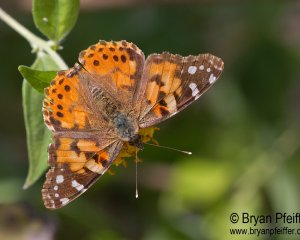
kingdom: Animalia
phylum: Arthropoda
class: Insecta
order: Lepidoptera
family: Nymphalidae
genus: Vanessa
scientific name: Vanessa cardui
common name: Painted Lady
